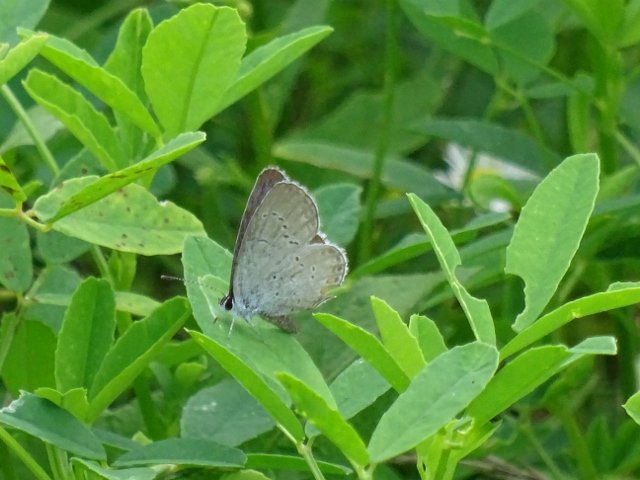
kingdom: Animalia
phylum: Arthropoda
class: Insecta
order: Lepidoptera
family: Lycaenidae
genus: Elkalyce
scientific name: Elkalyce comyntas
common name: Eastern Tailed-Blue
